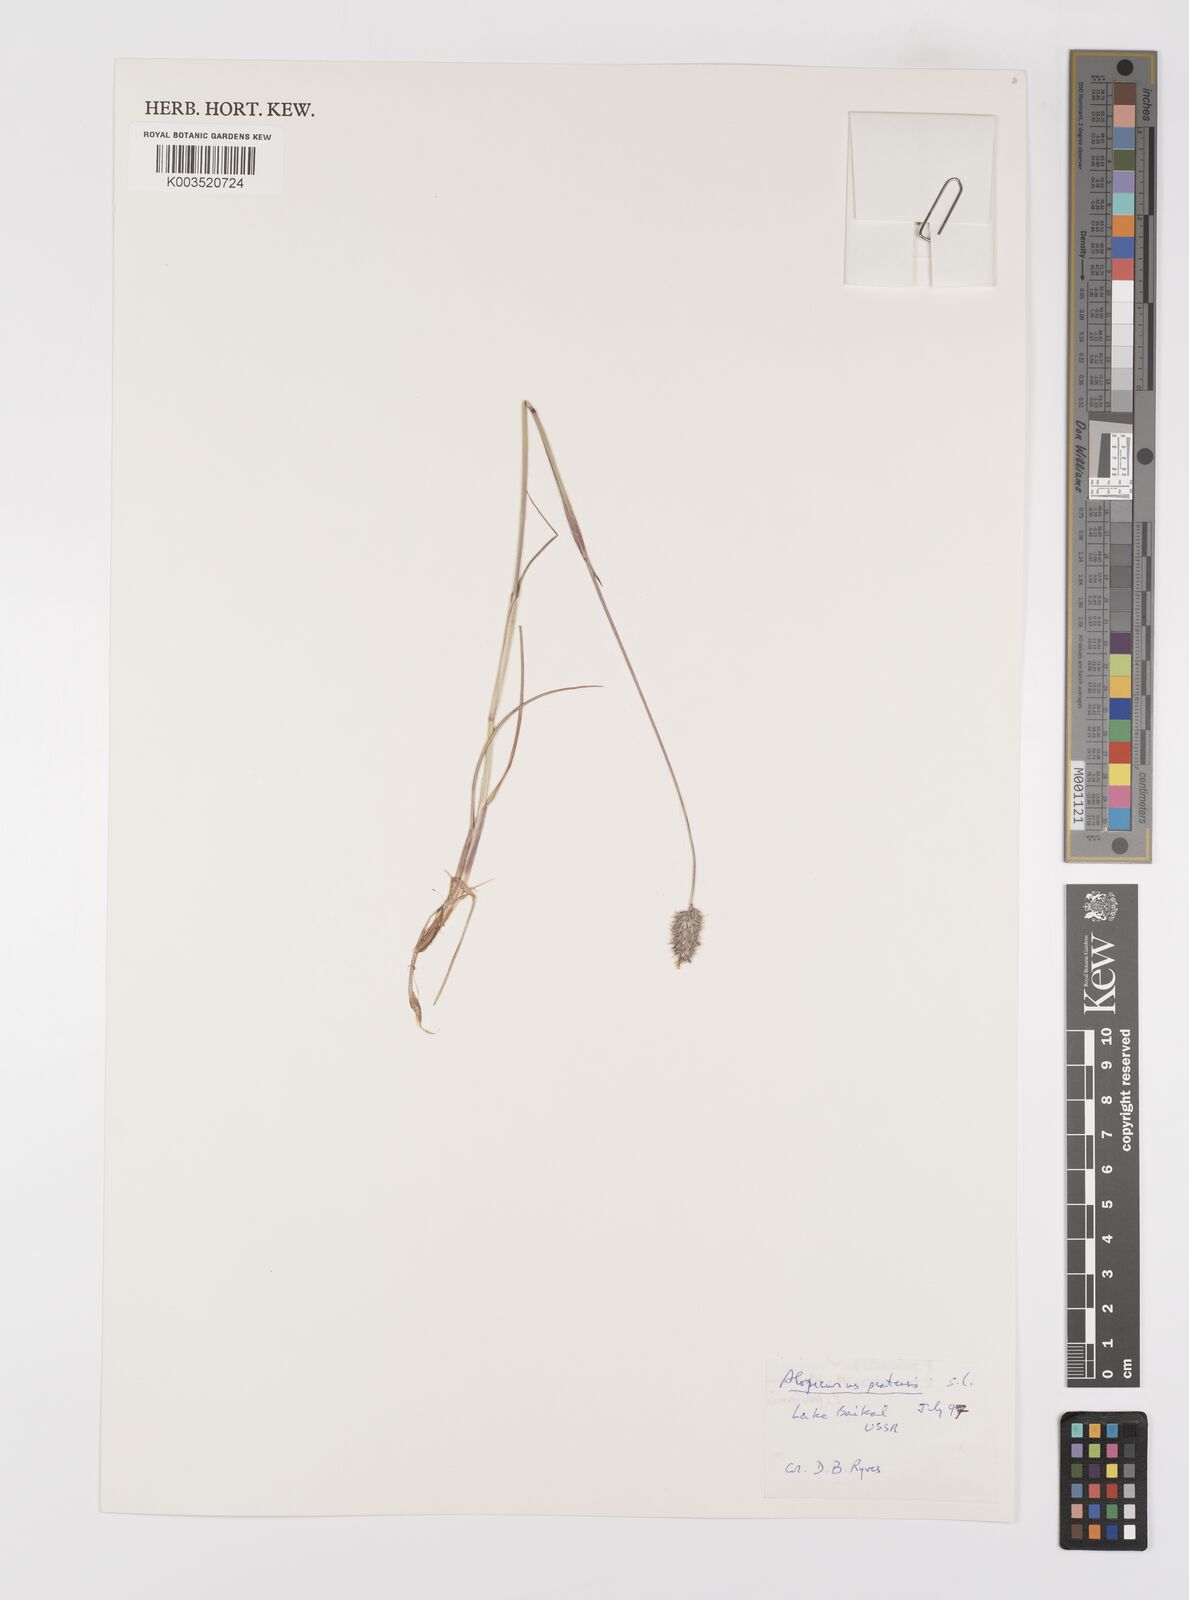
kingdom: Plantae
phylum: Tracheophyta
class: Liliopsida
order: Poales
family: Poaceae
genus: Alopecurus
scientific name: Alopecurus pratensis
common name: Meadow foxtail
